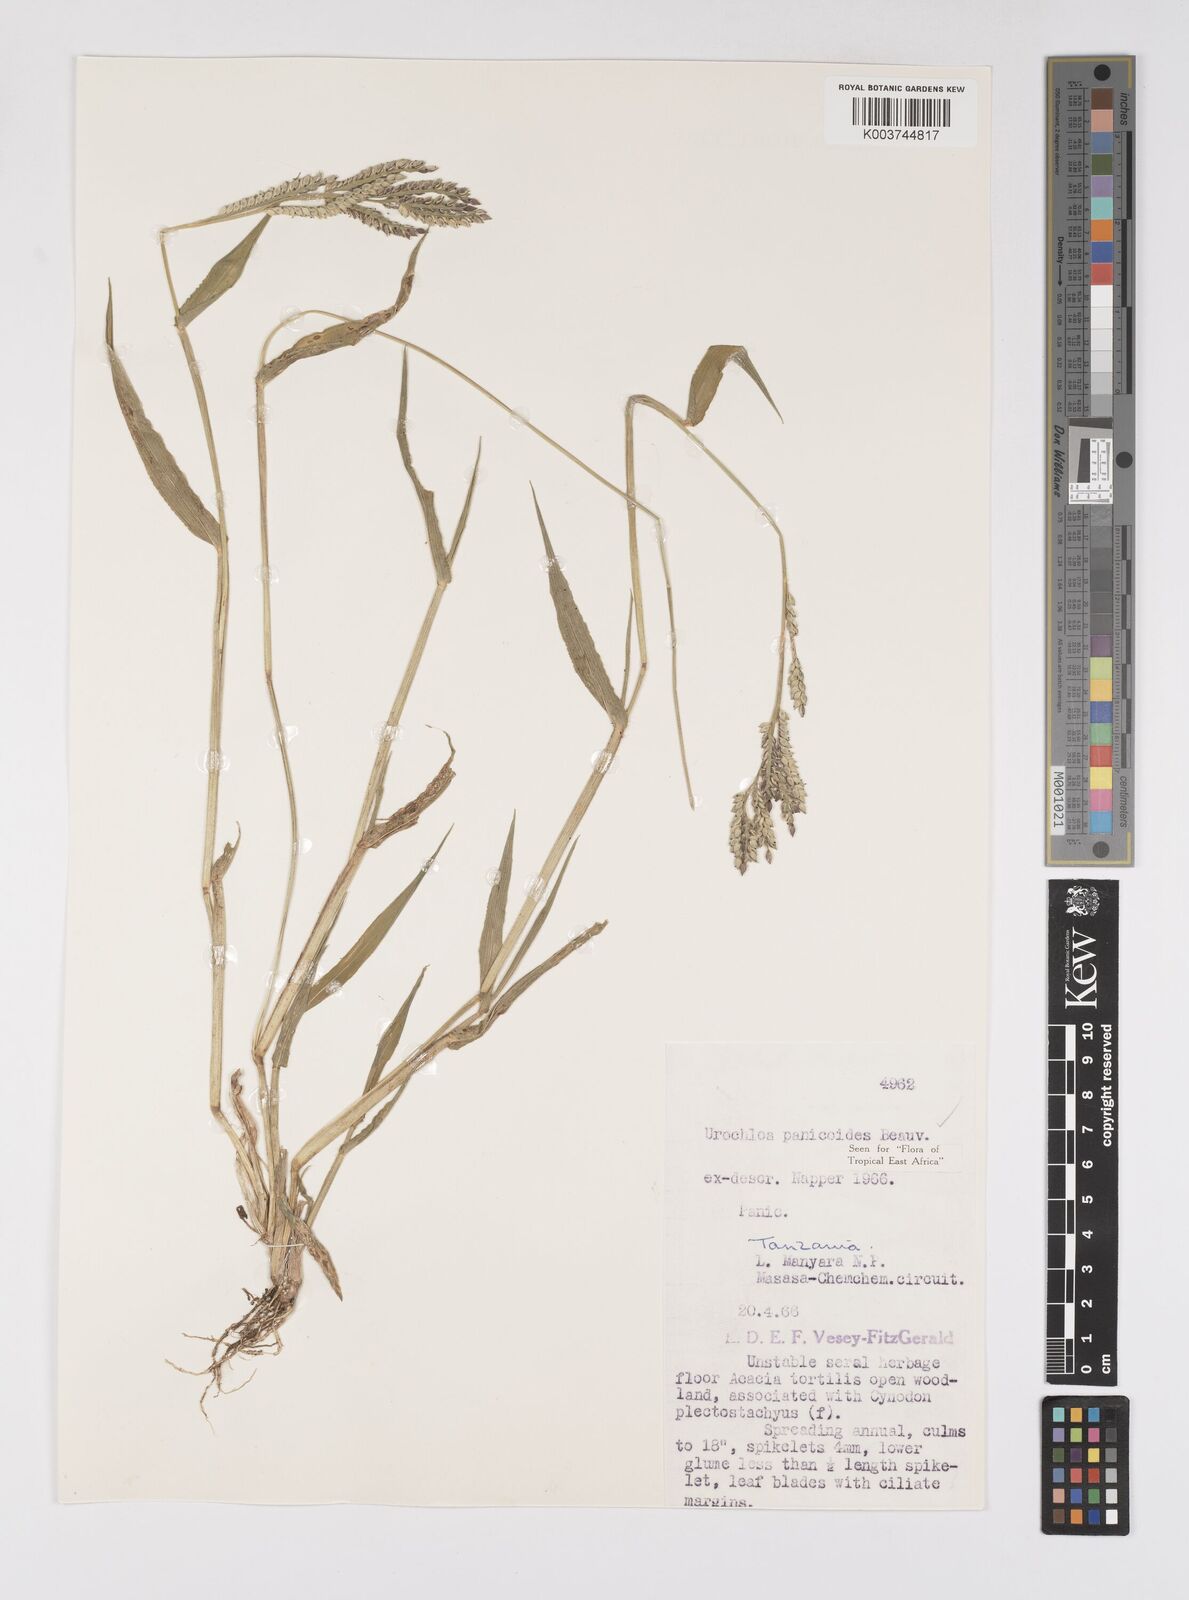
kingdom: Plantae
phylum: Tracheophyta
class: Liliopsida
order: Poales
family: Poaceae
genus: Urochloa
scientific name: Urochloa panicoides
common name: Sharp-flowered signal-grass
